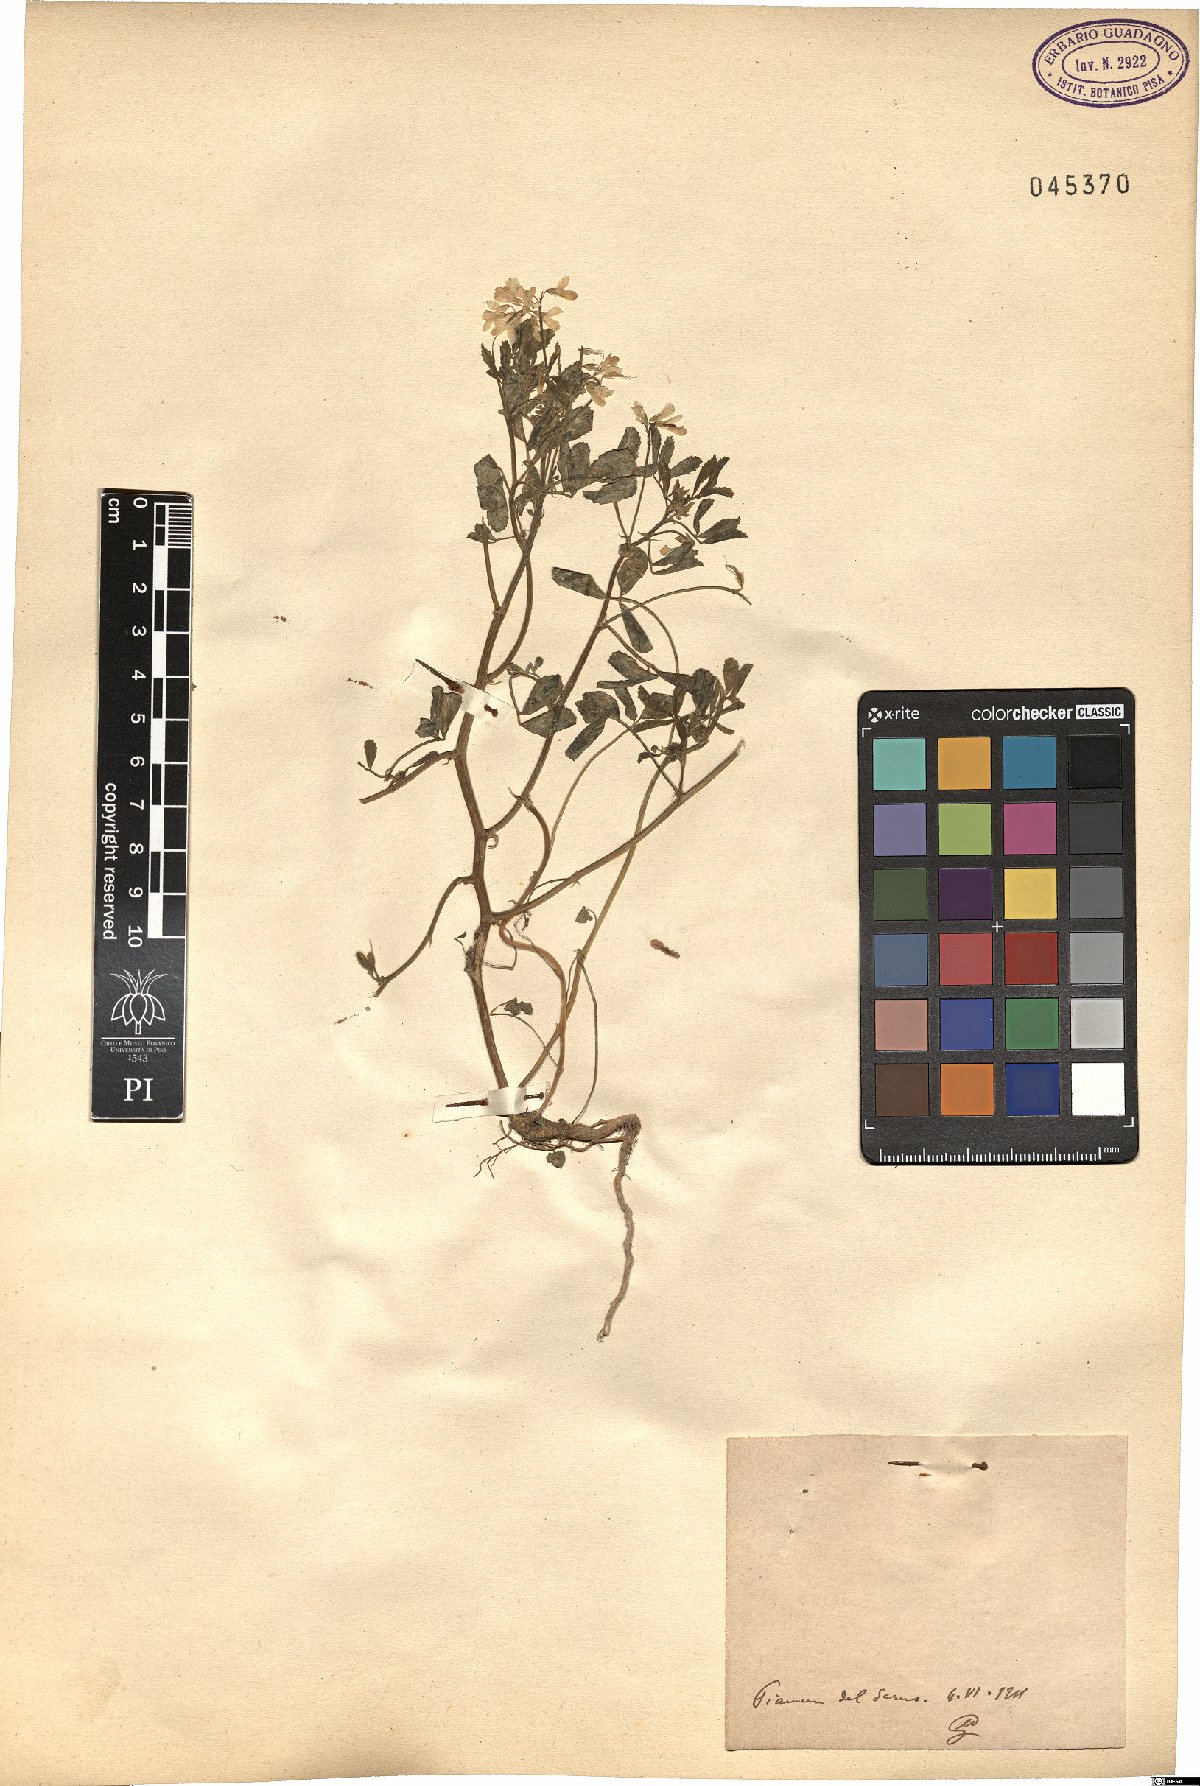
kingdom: Plantae
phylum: Tracheophyta
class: Magnoliopsida
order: Fabales
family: Fabaceae
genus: Trigonella
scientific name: Trigonella
